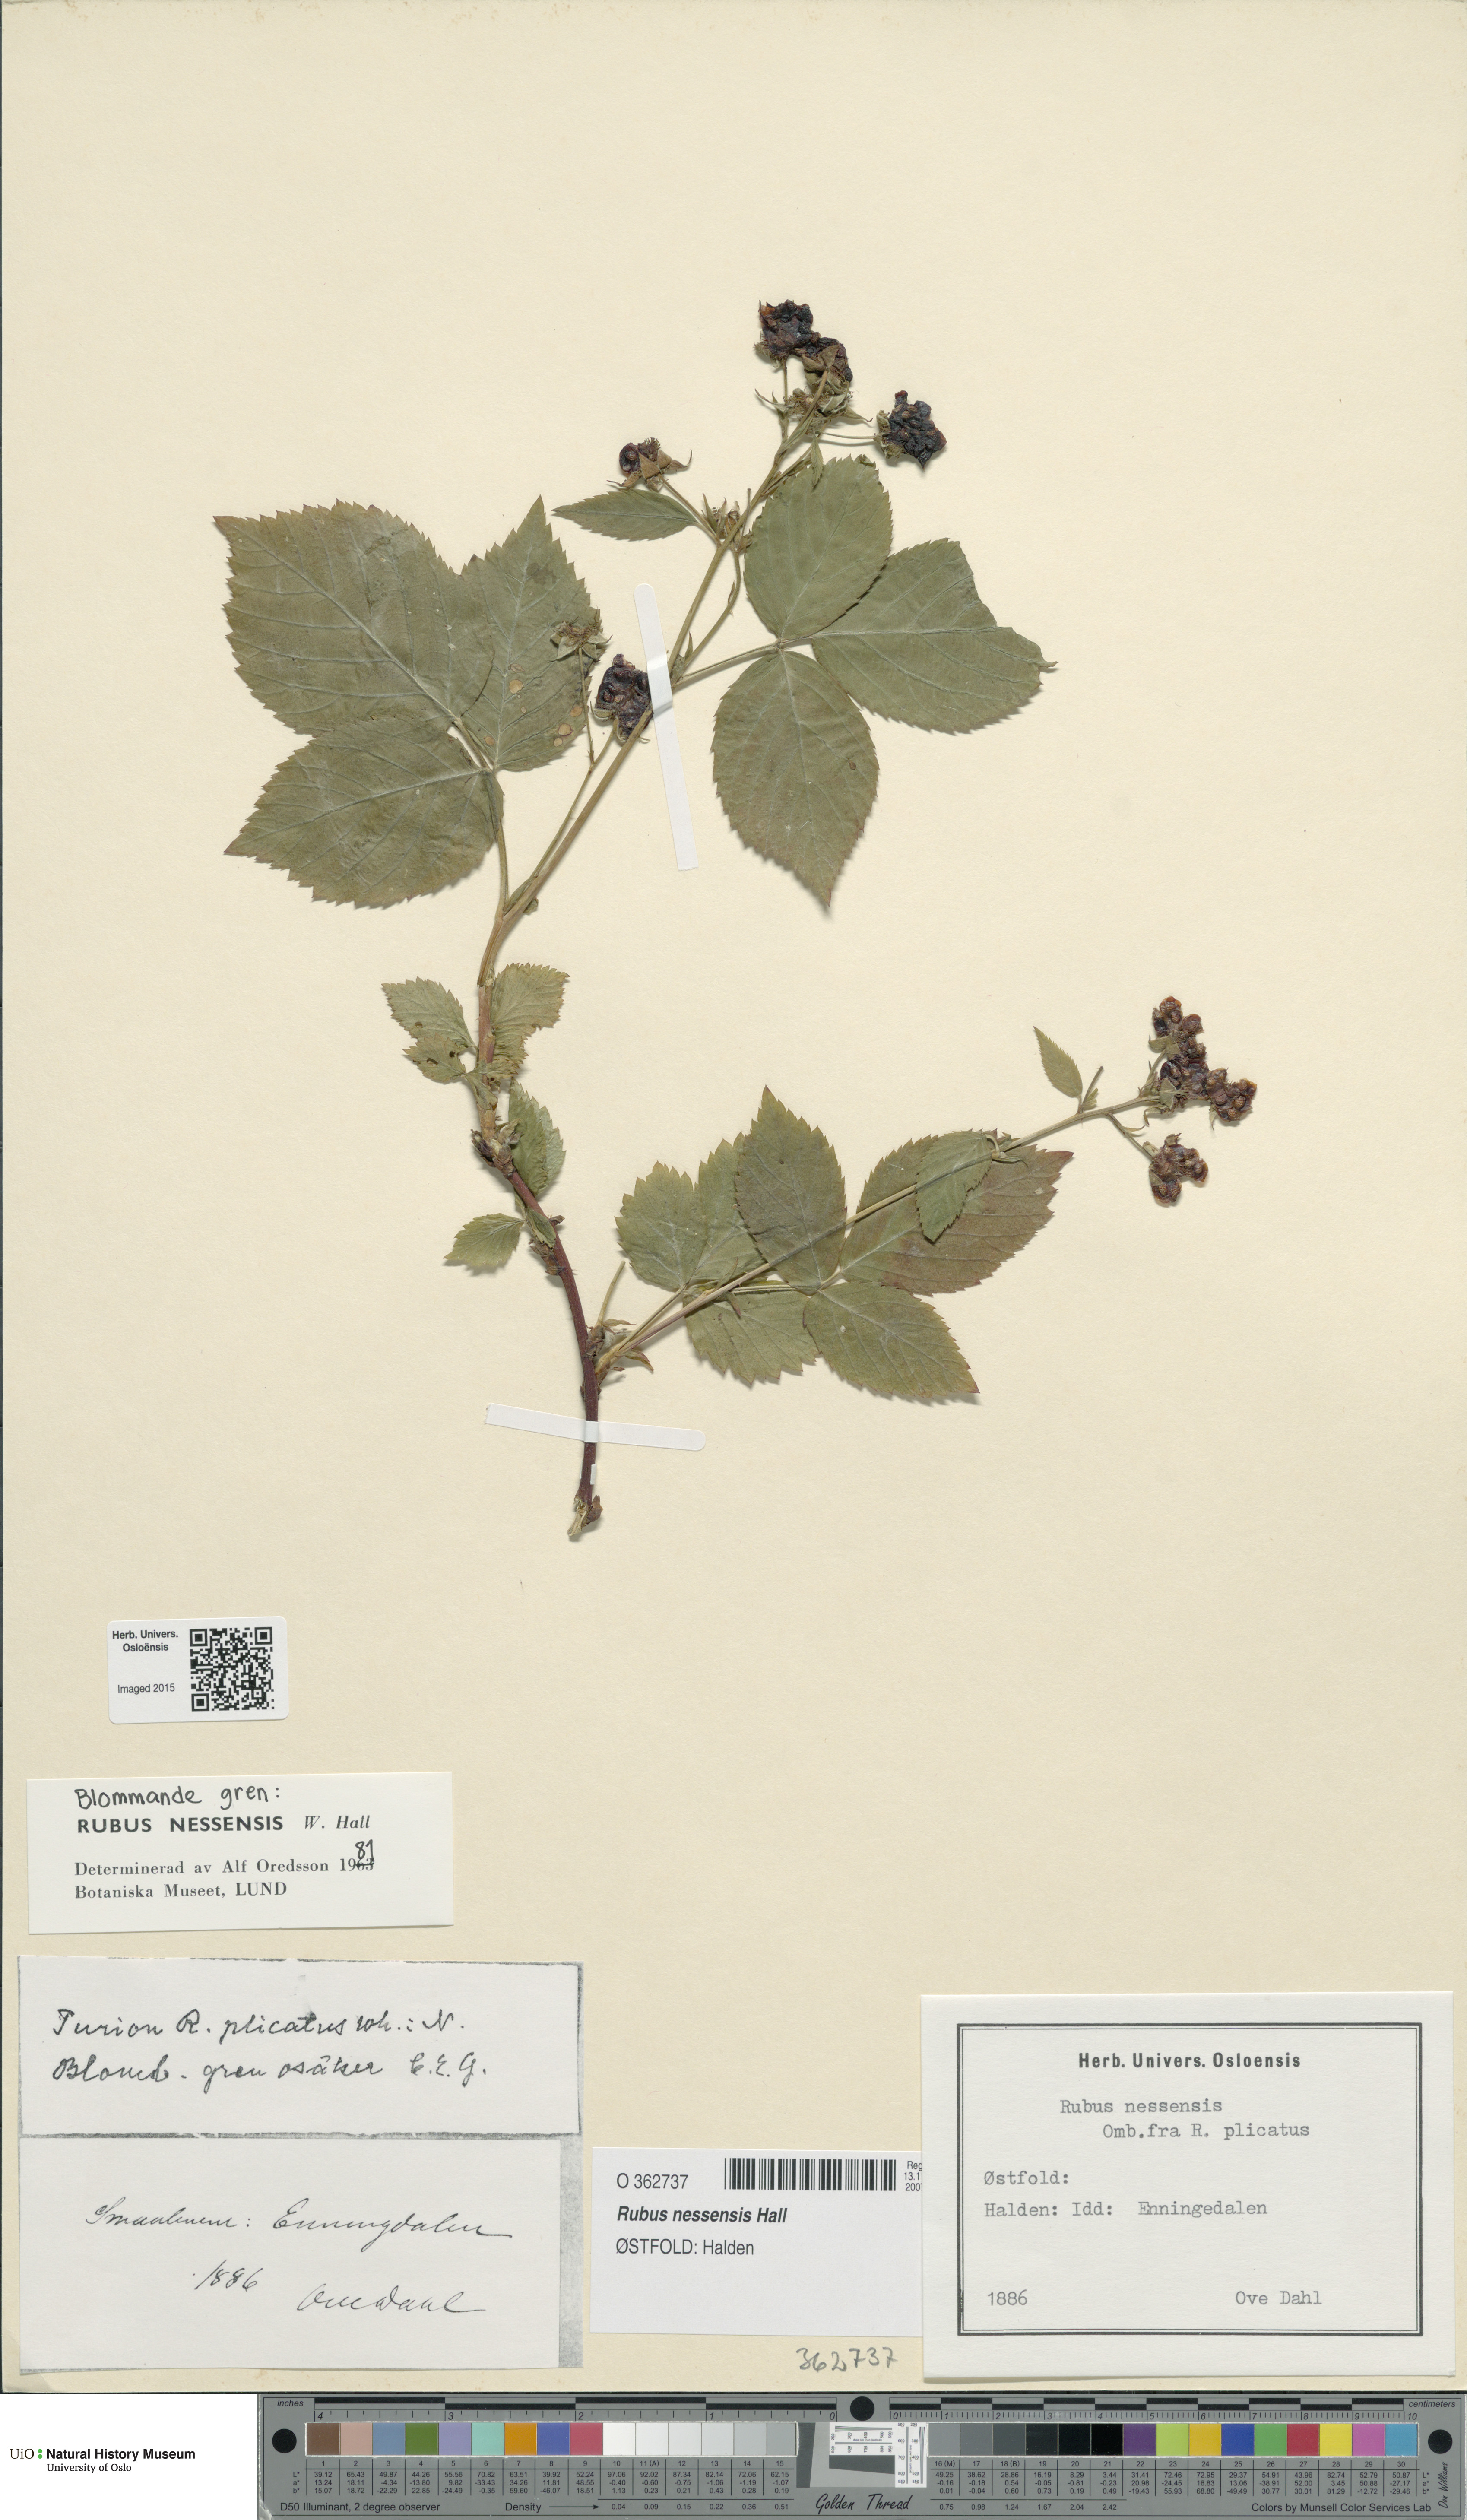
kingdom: Plantae
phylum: Tracheophyta
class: Magnoliopsida
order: Rosales
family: Rosaceae
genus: Rubus
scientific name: Rubus polonicus
